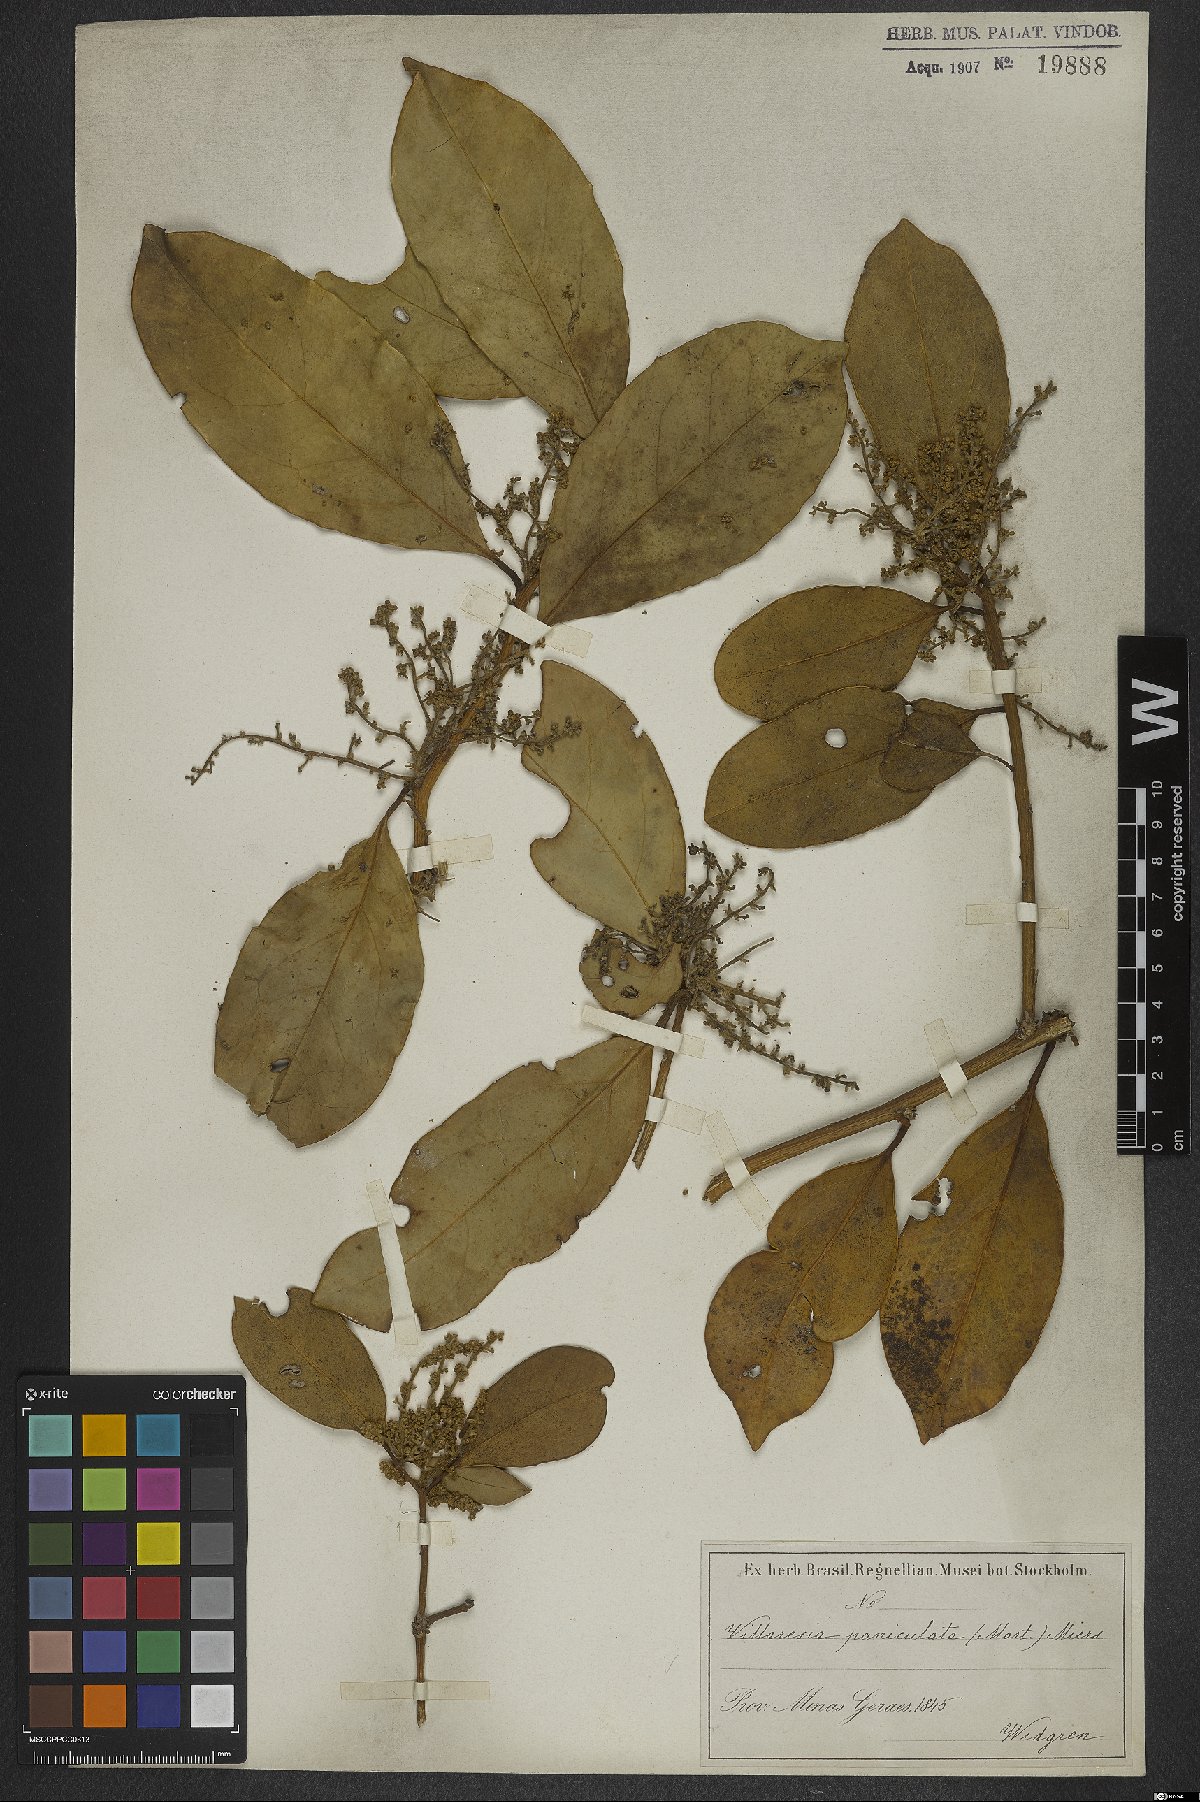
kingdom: Plantae
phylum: Tracheophyta
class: Magnoliopsida
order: Cardiopteridales
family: Cardiopteridaceae
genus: Citronella
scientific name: Citronella paniculata
